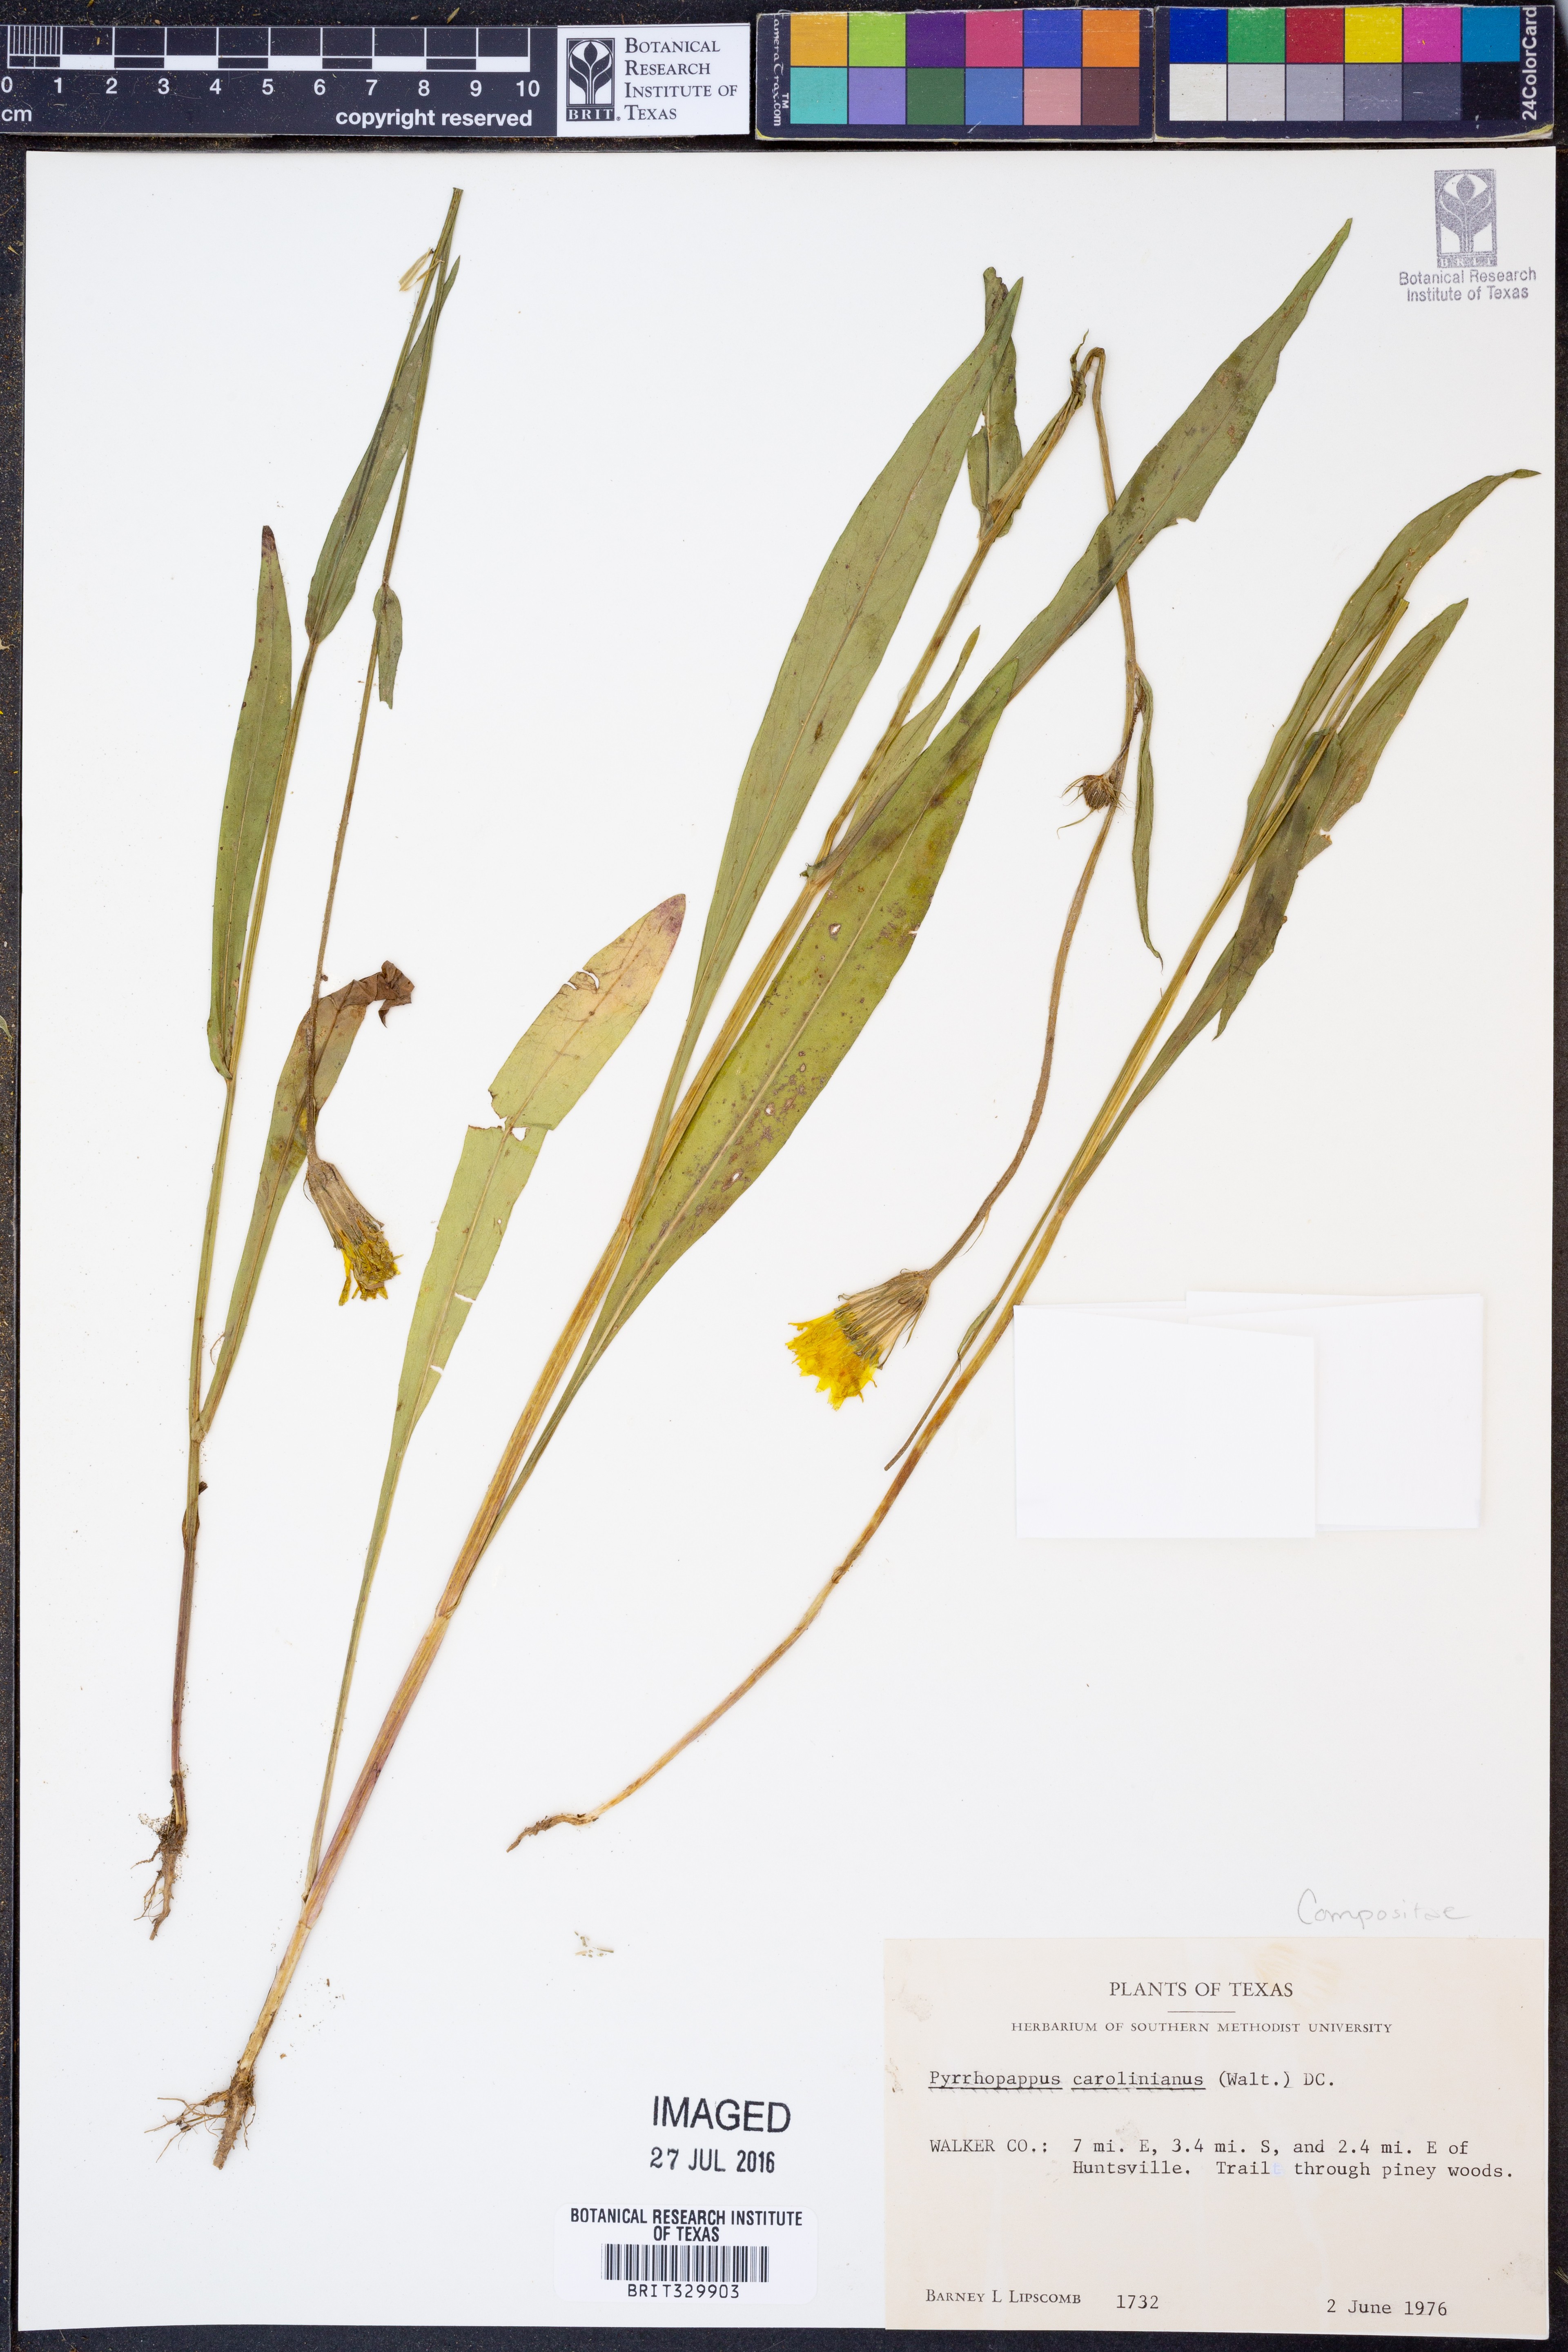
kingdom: Plantae
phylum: Tracheophyta
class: Magnoliopsida
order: Asterales
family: Asteraceae
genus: Pyrrhopappus
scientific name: Pyrrhopappus carolinianus
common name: Carolina desert-chicory
